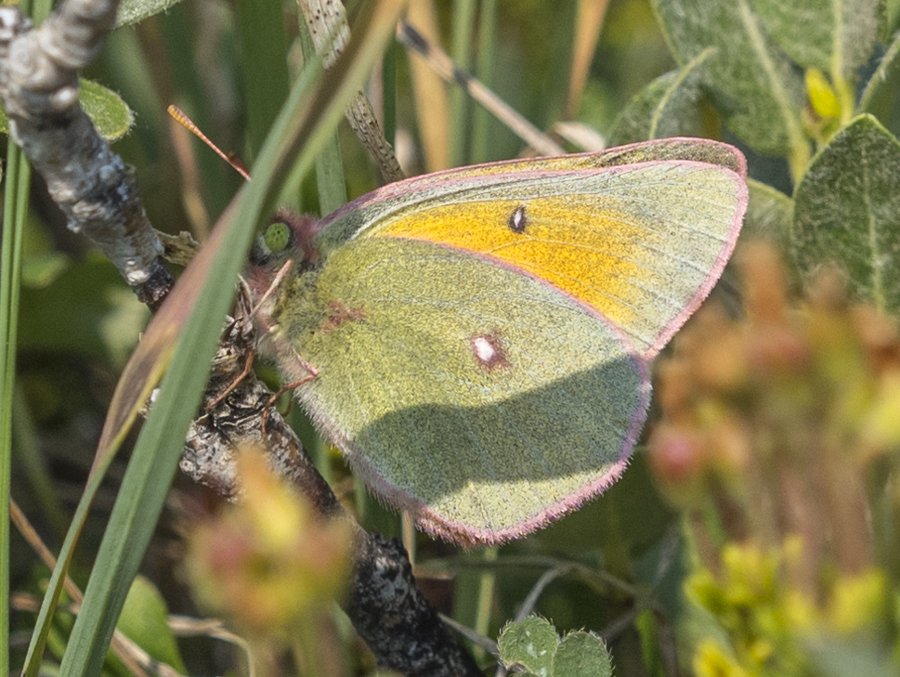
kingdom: Animalia
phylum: Arthropoda
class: Insecta
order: Lepidoptera
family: Pieridae
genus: Colias
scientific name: Colias meadii
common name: Mead's Sulphur
